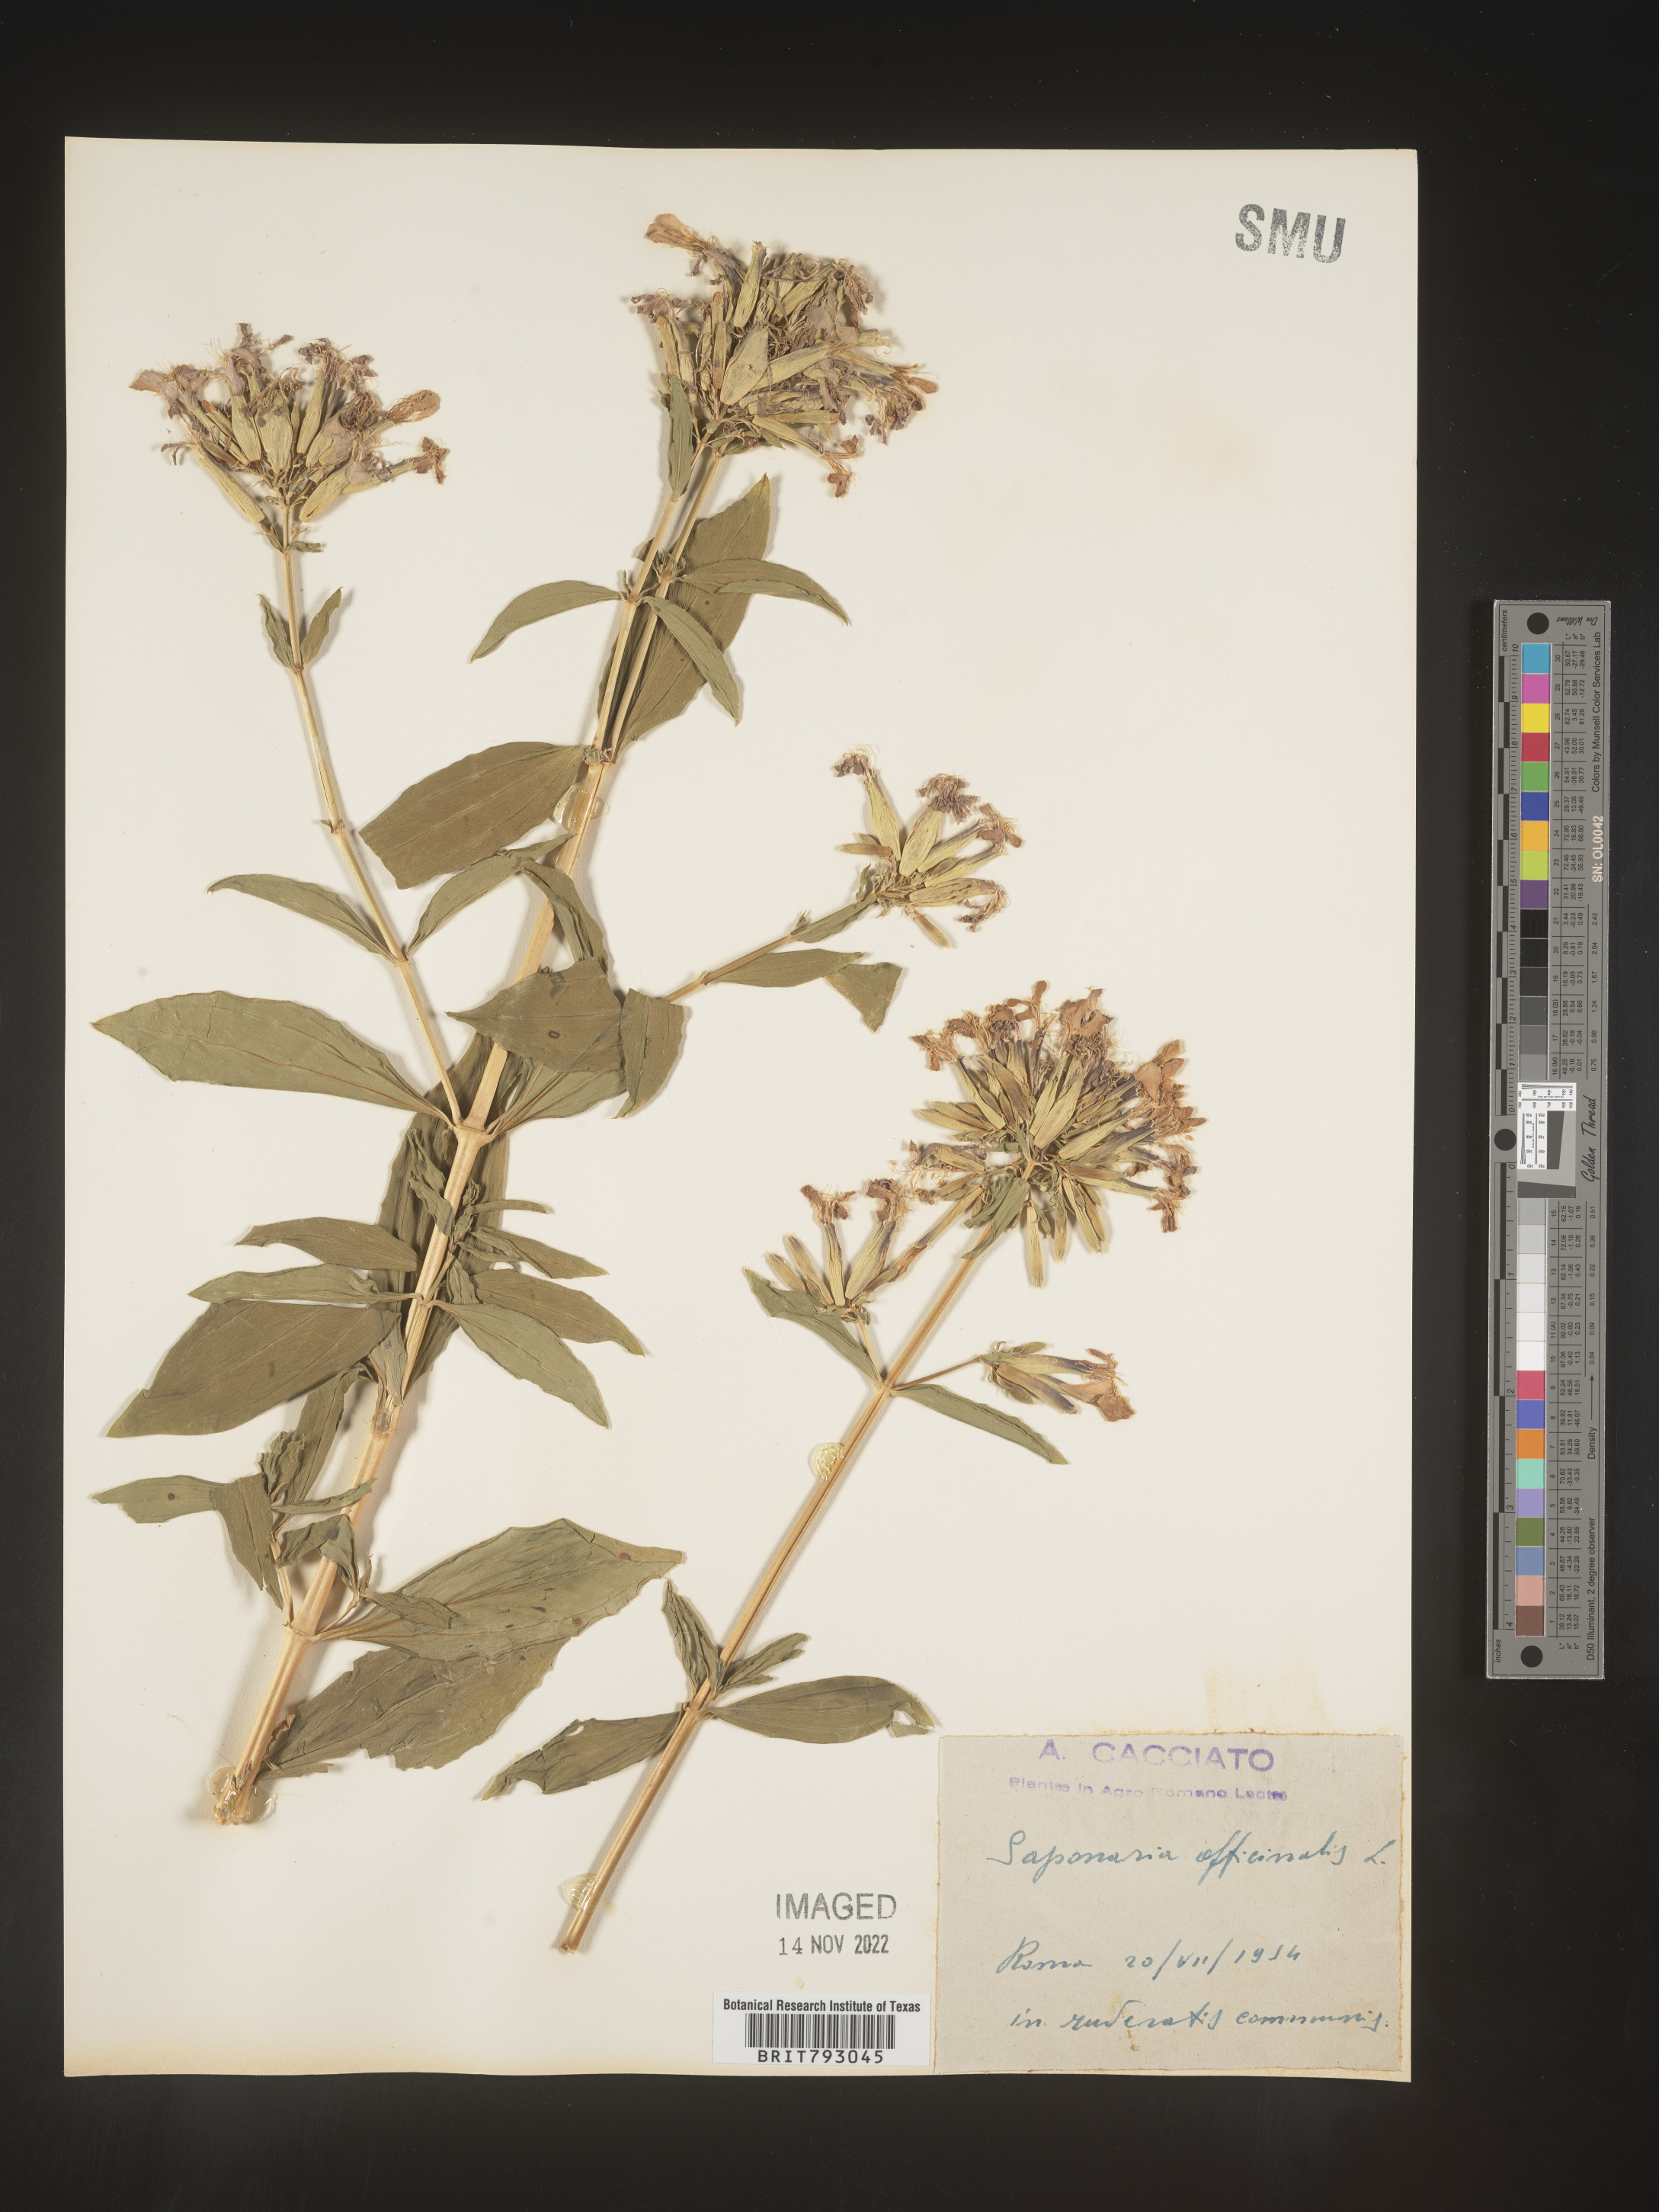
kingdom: Plantae
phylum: Tracheophyta
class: Magnoliopsida
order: Caryophyllales
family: Caryophyllaceae
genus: Saponaria
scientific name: Saponaria
